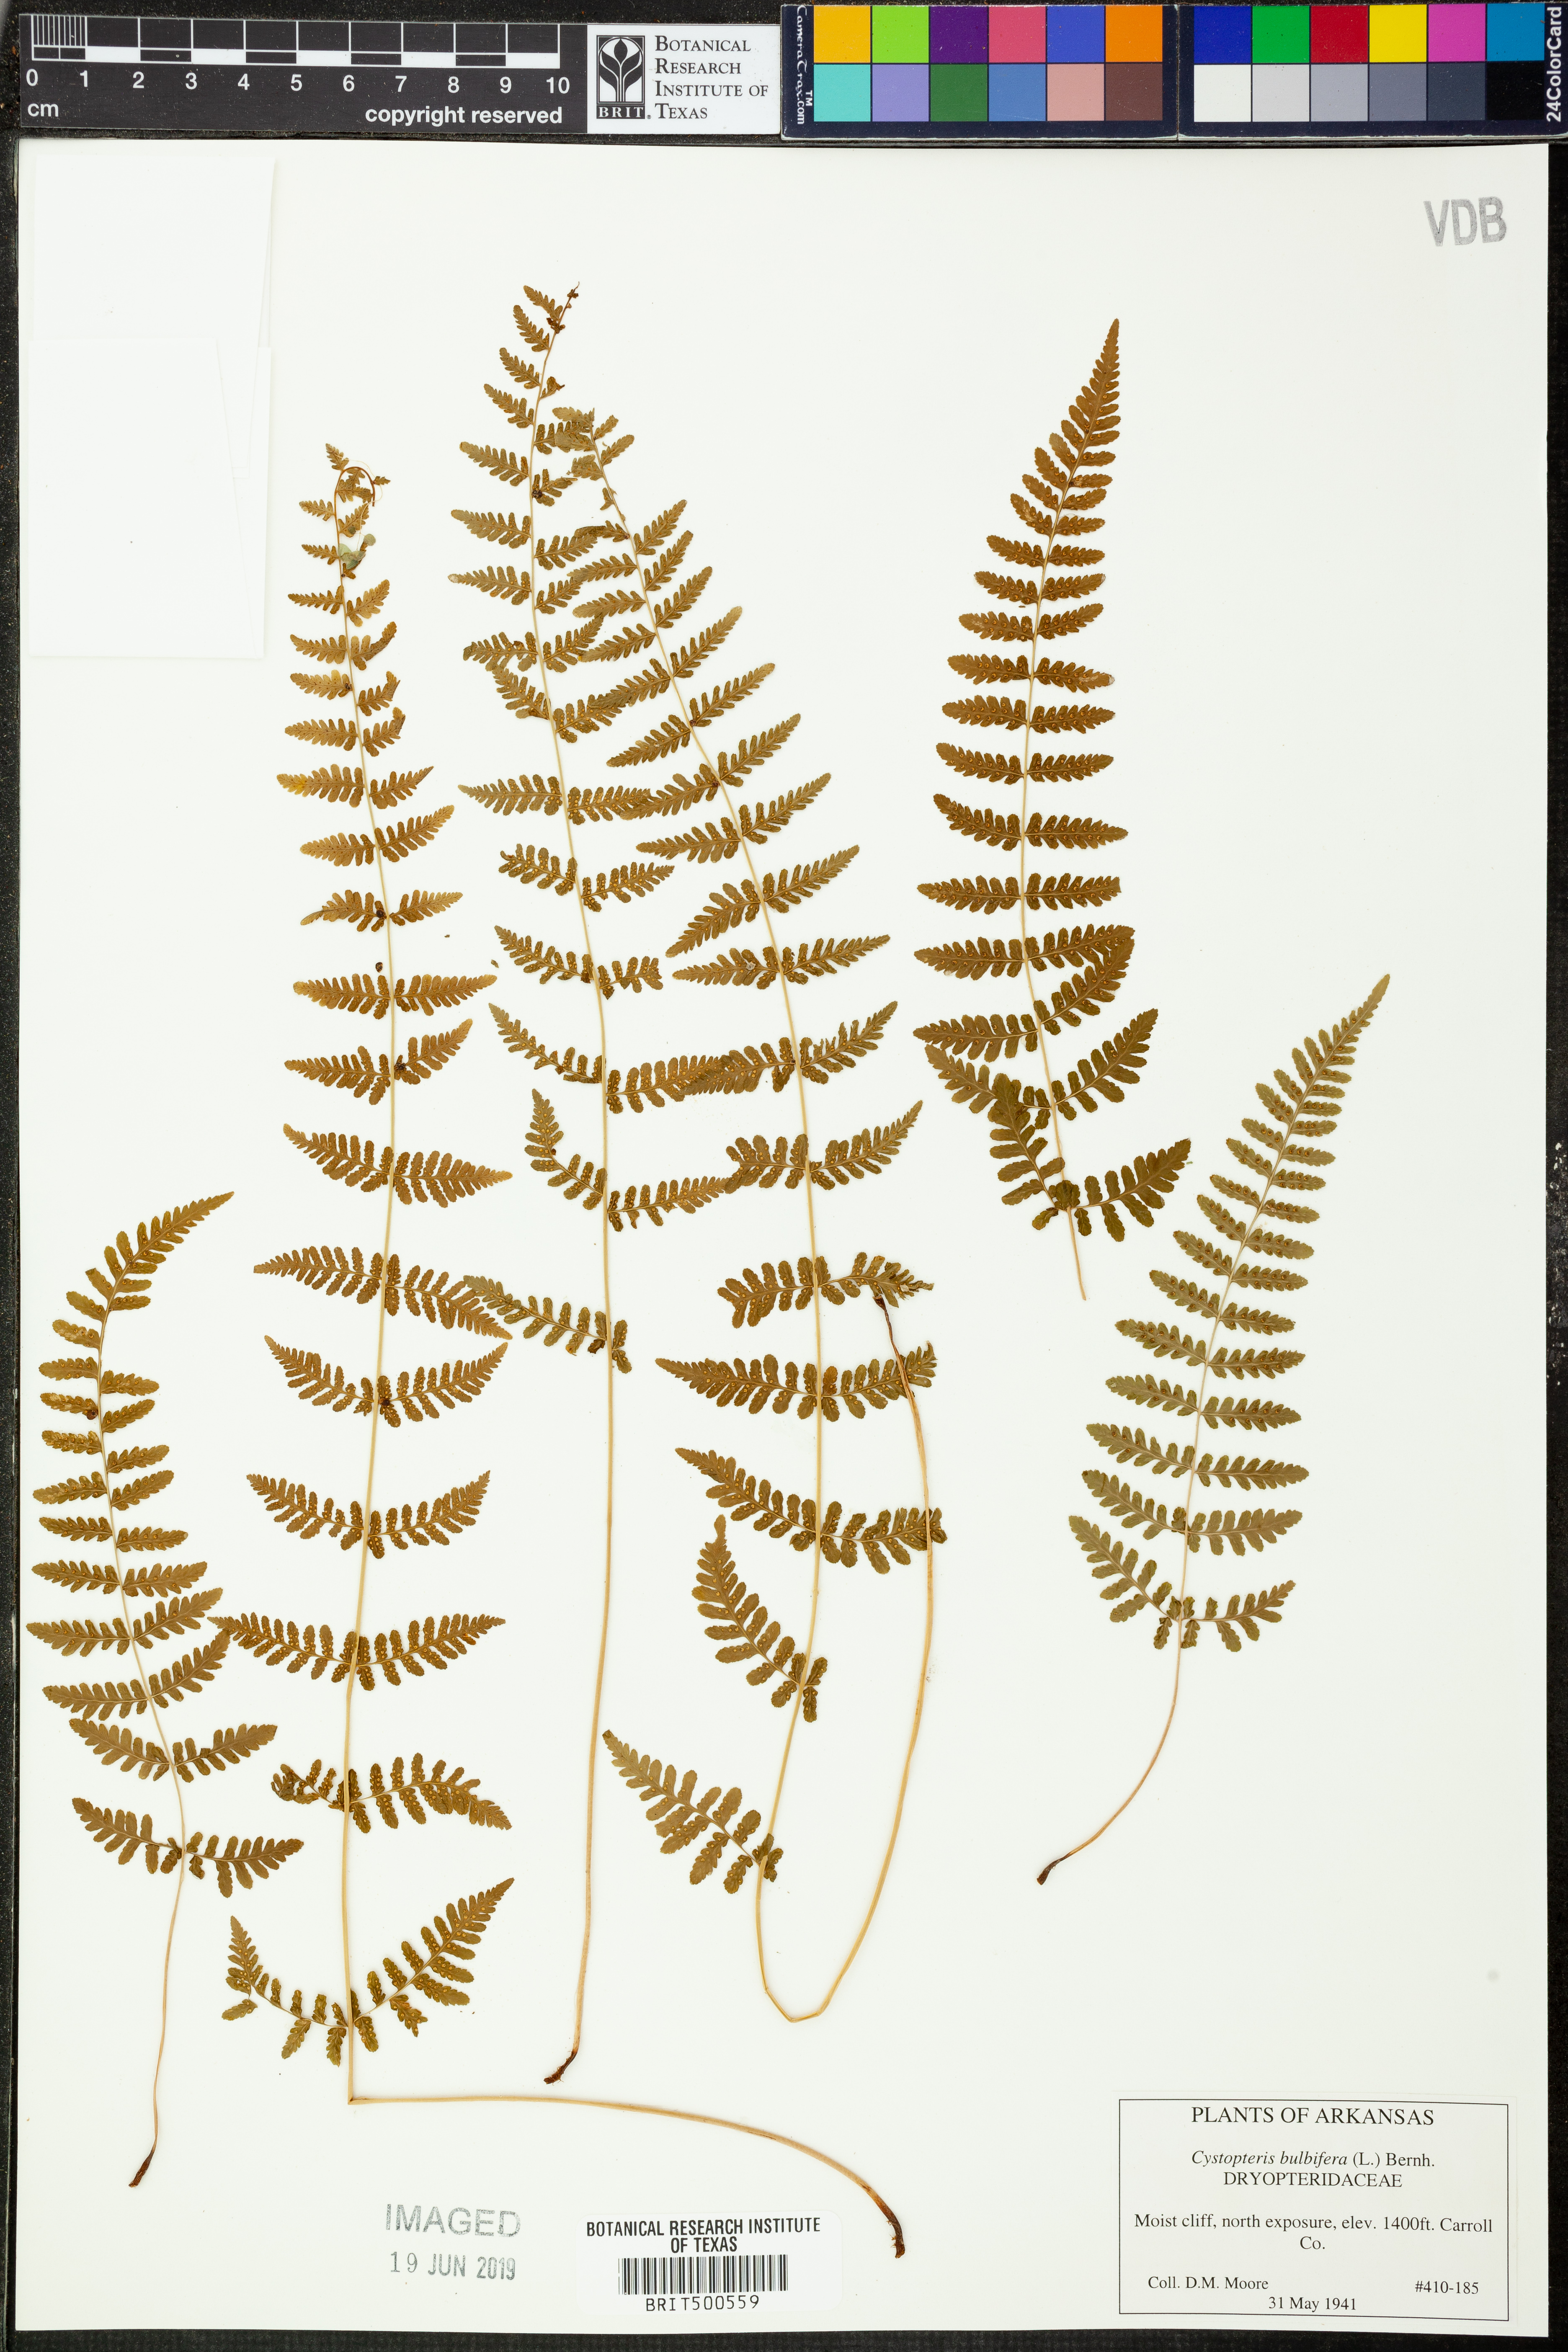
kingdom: Plantae
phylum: Tracheophyta
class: Polypodiopsida
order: Polypodiales
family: Cystopteridaceae
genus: Cystopteris
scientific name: Cystopteris bulbifera
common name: Bulblet bladder fern
